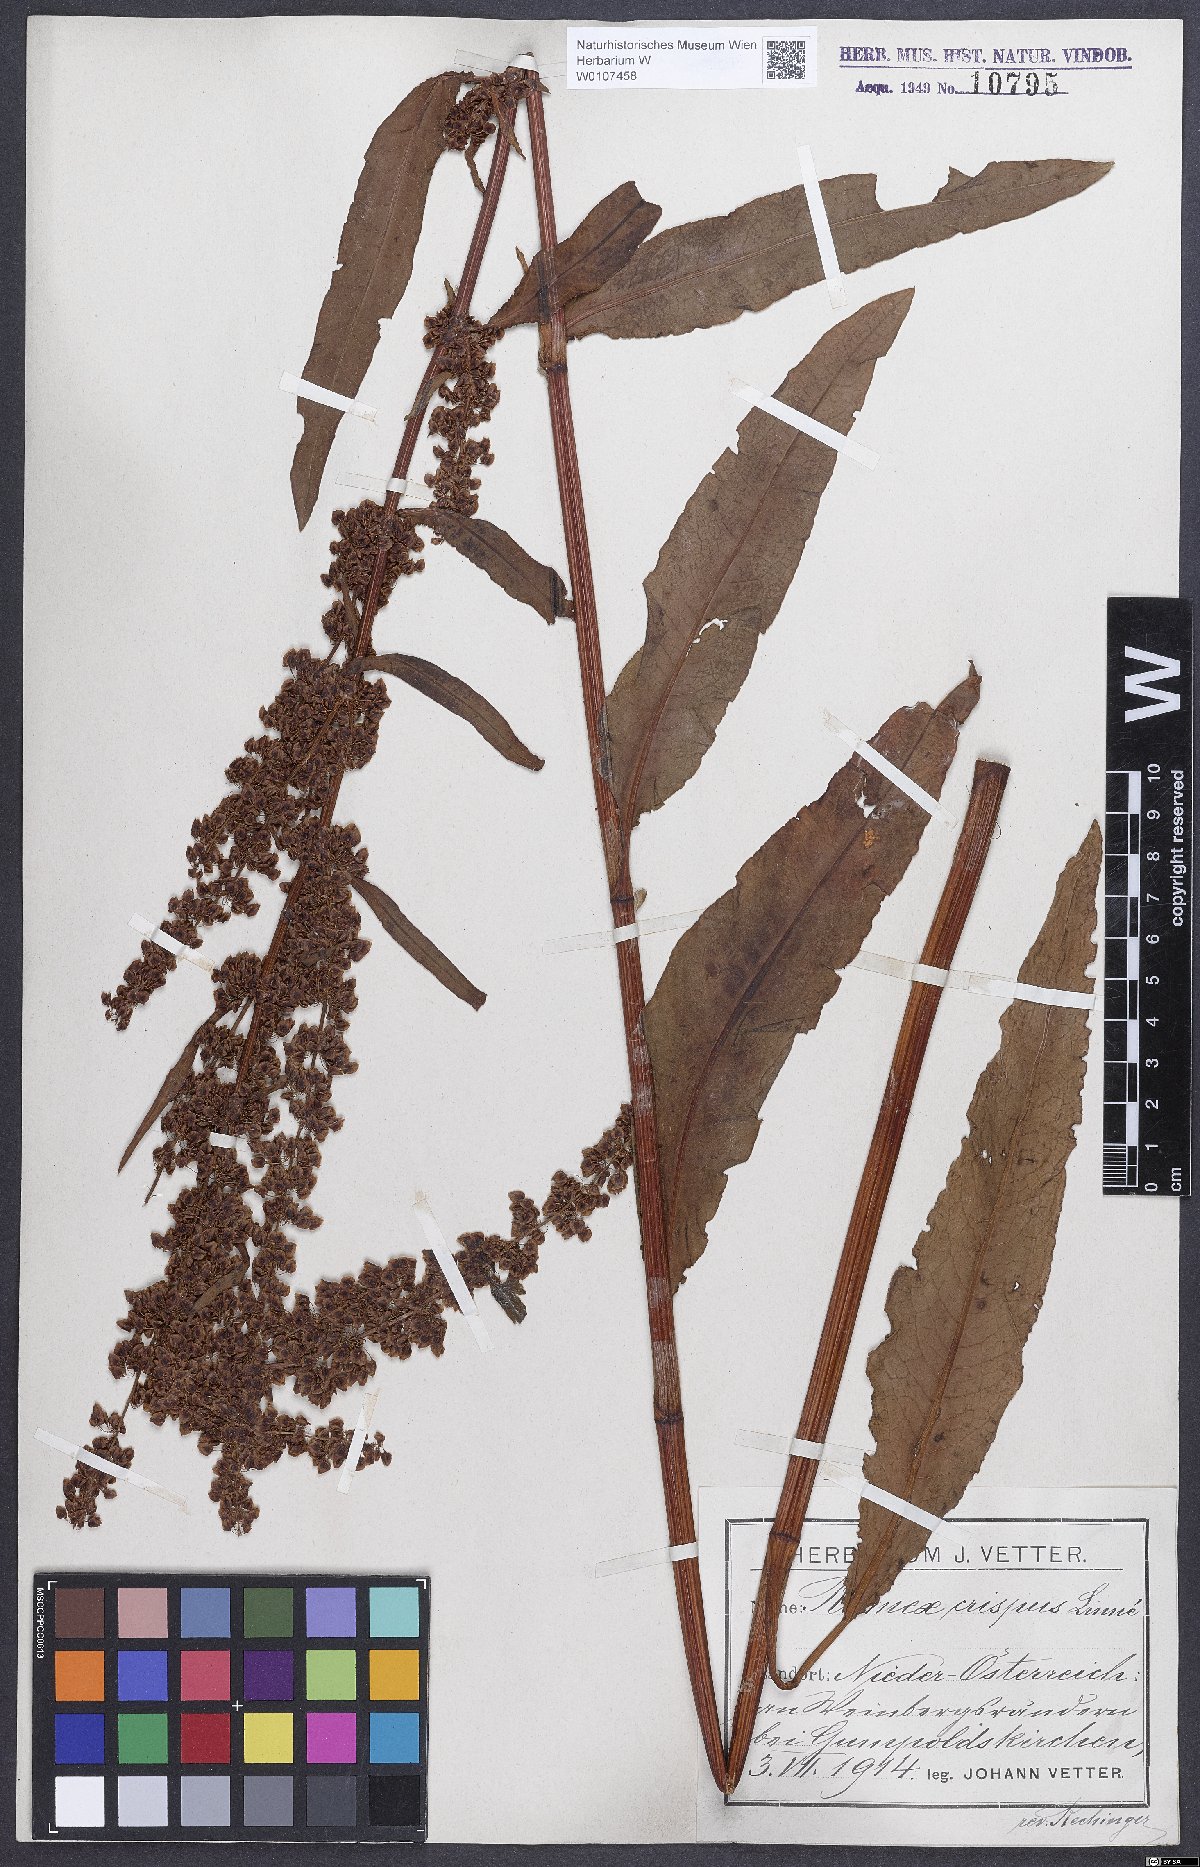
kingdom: Plantae
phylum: Tracheophyta
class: Magnoliopsida
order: Caryophyllales
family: Polygonaceae
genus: Rumex
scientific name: Rumex crispus
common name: Curled dock
